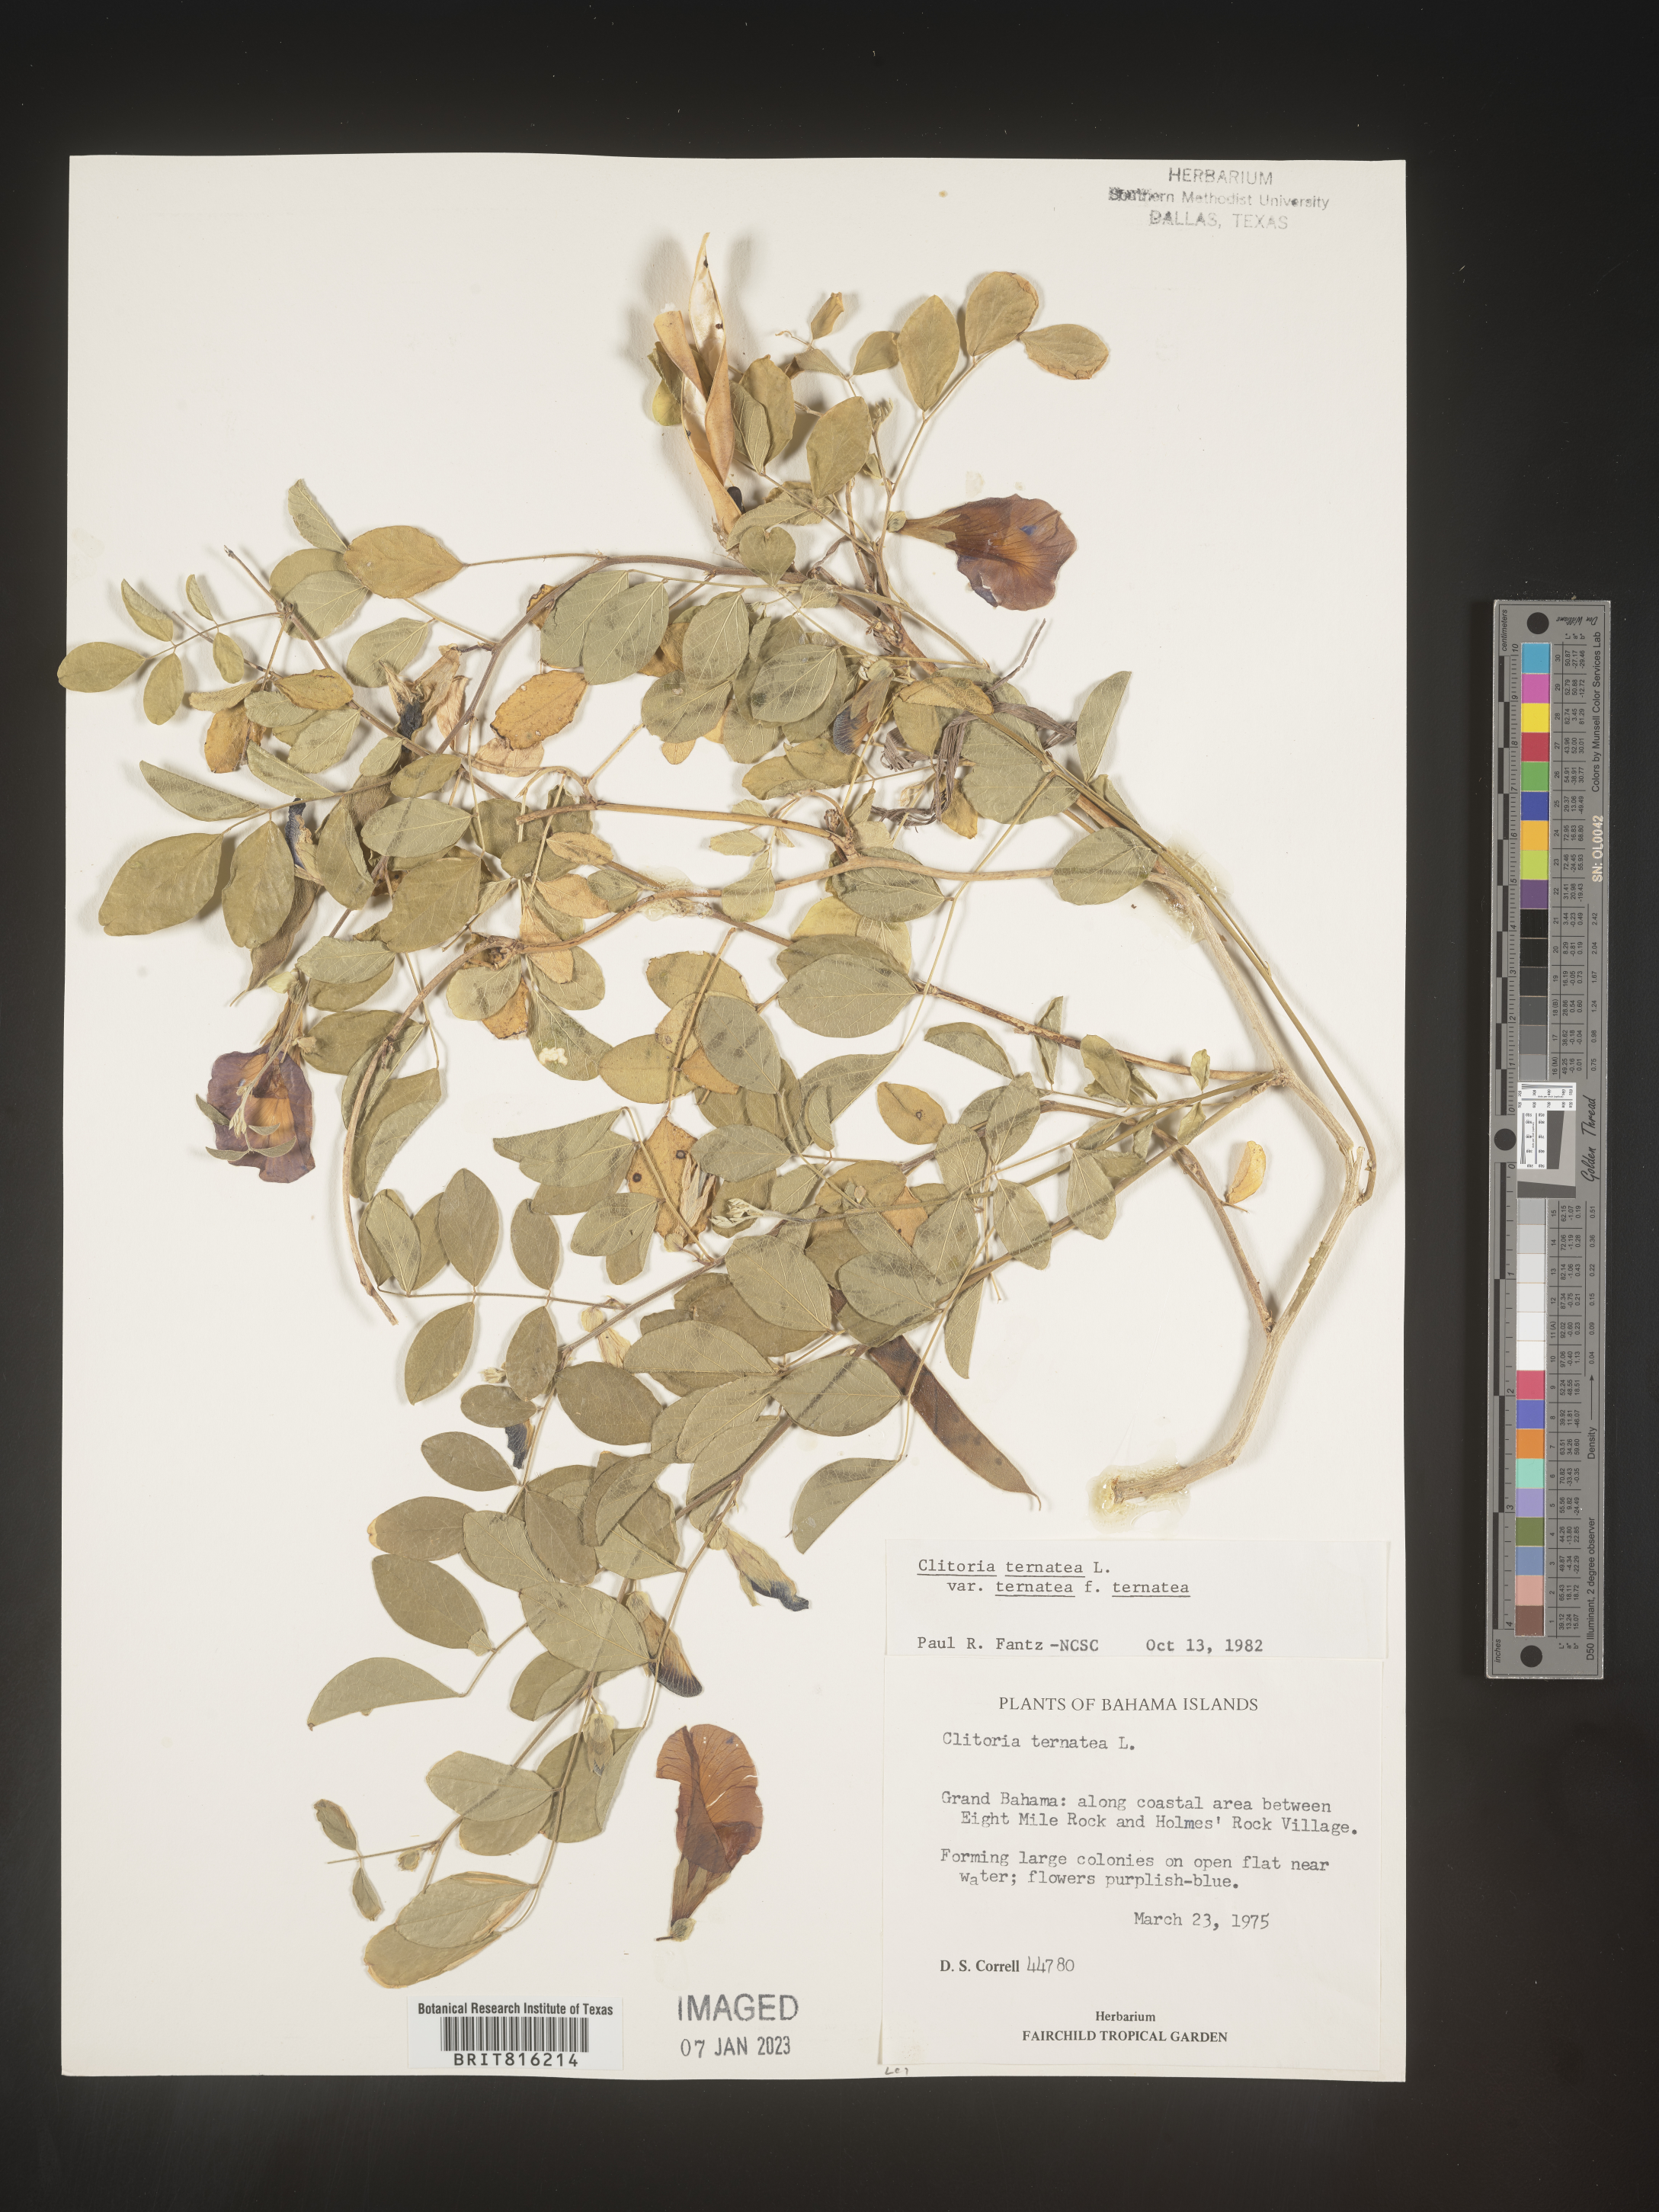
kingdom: Plantae
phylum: Tracheophyta
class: Magnoliopsida
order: Fabales
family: Fabaceae
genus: Clitoria
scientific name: Clitoria
